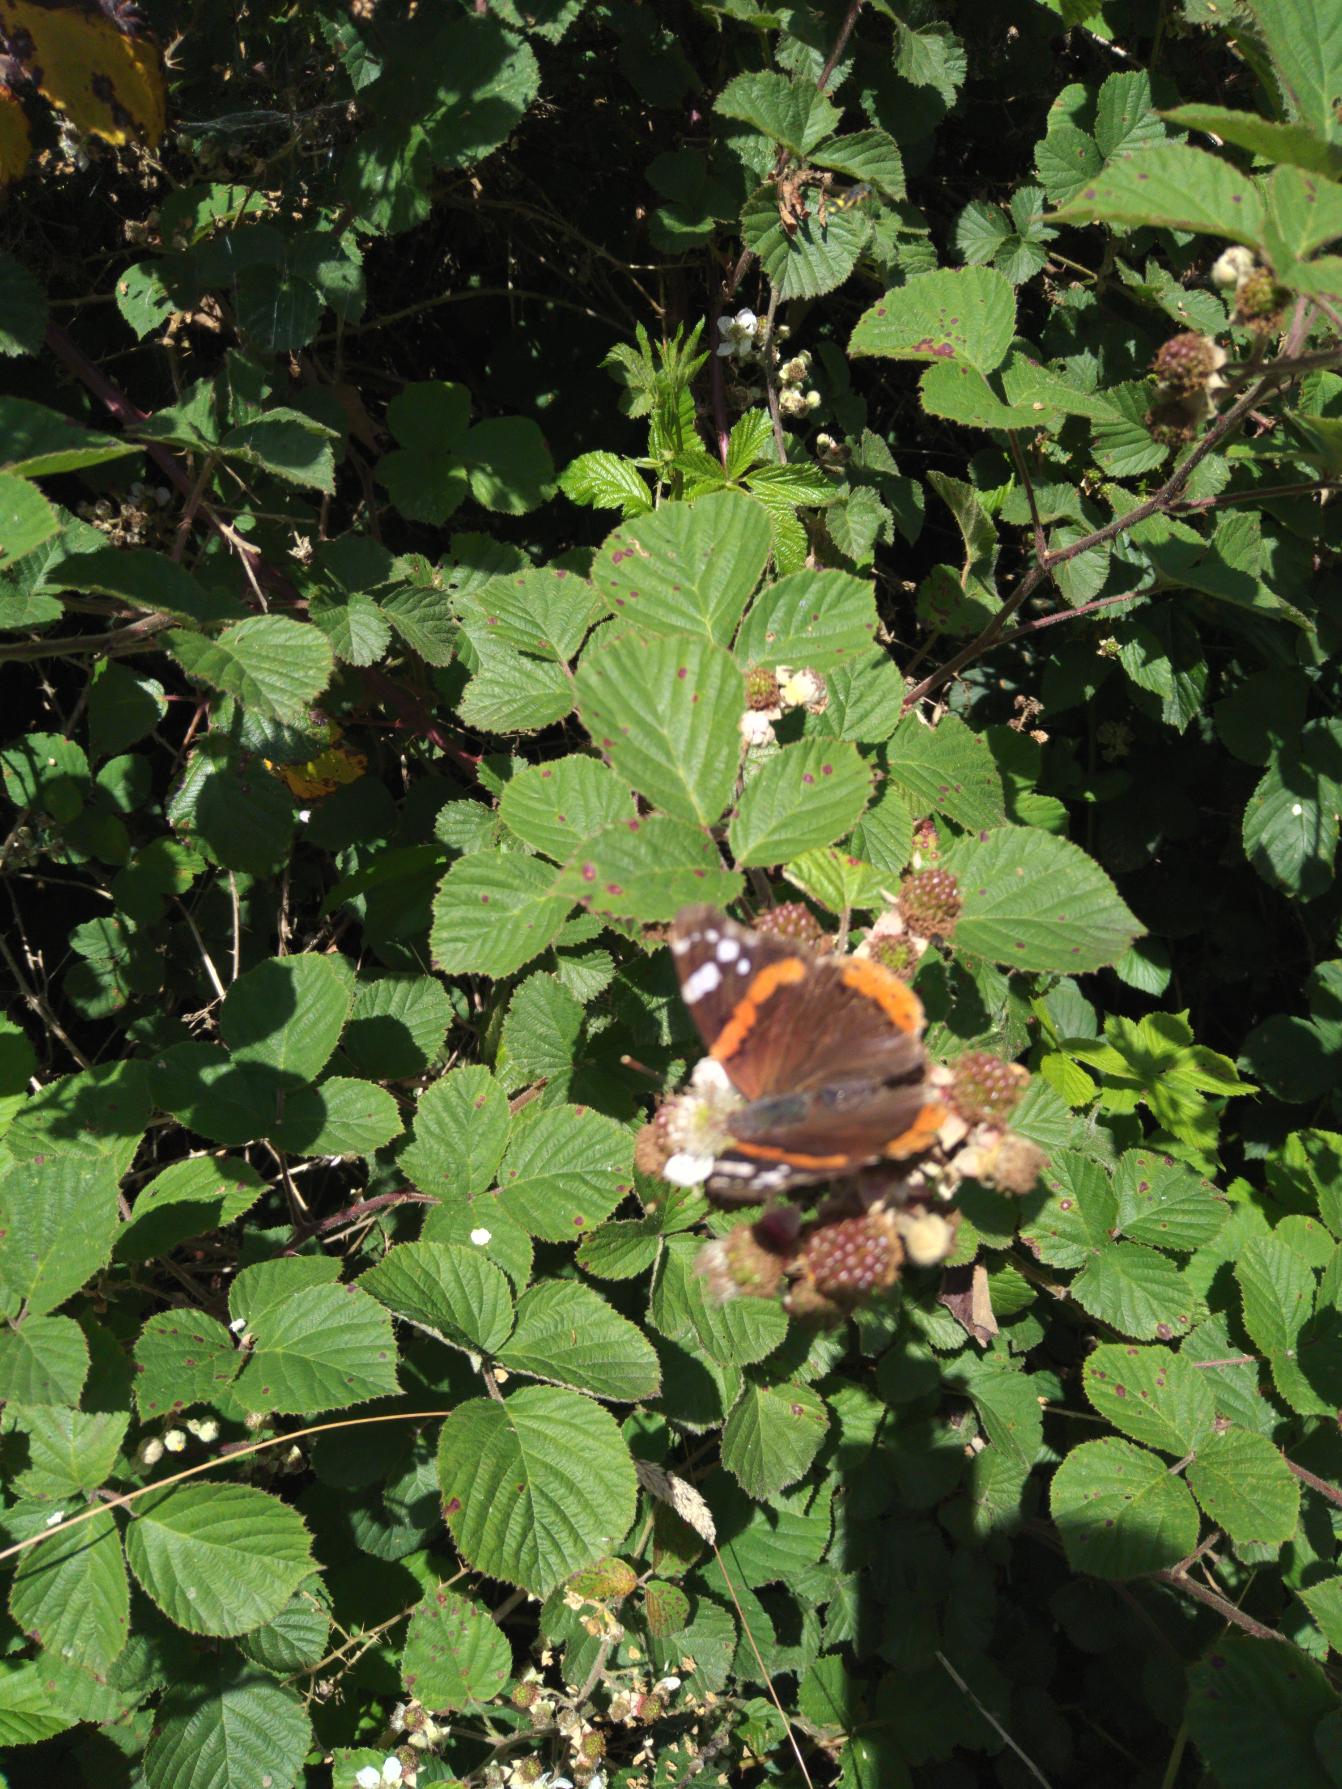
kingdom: Animalia
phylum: Arthropoda
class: Insecta
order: Lepidoptera
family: Nymphalidae
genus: Vanessa
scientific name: Vanessa atalanta
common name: Admiral
